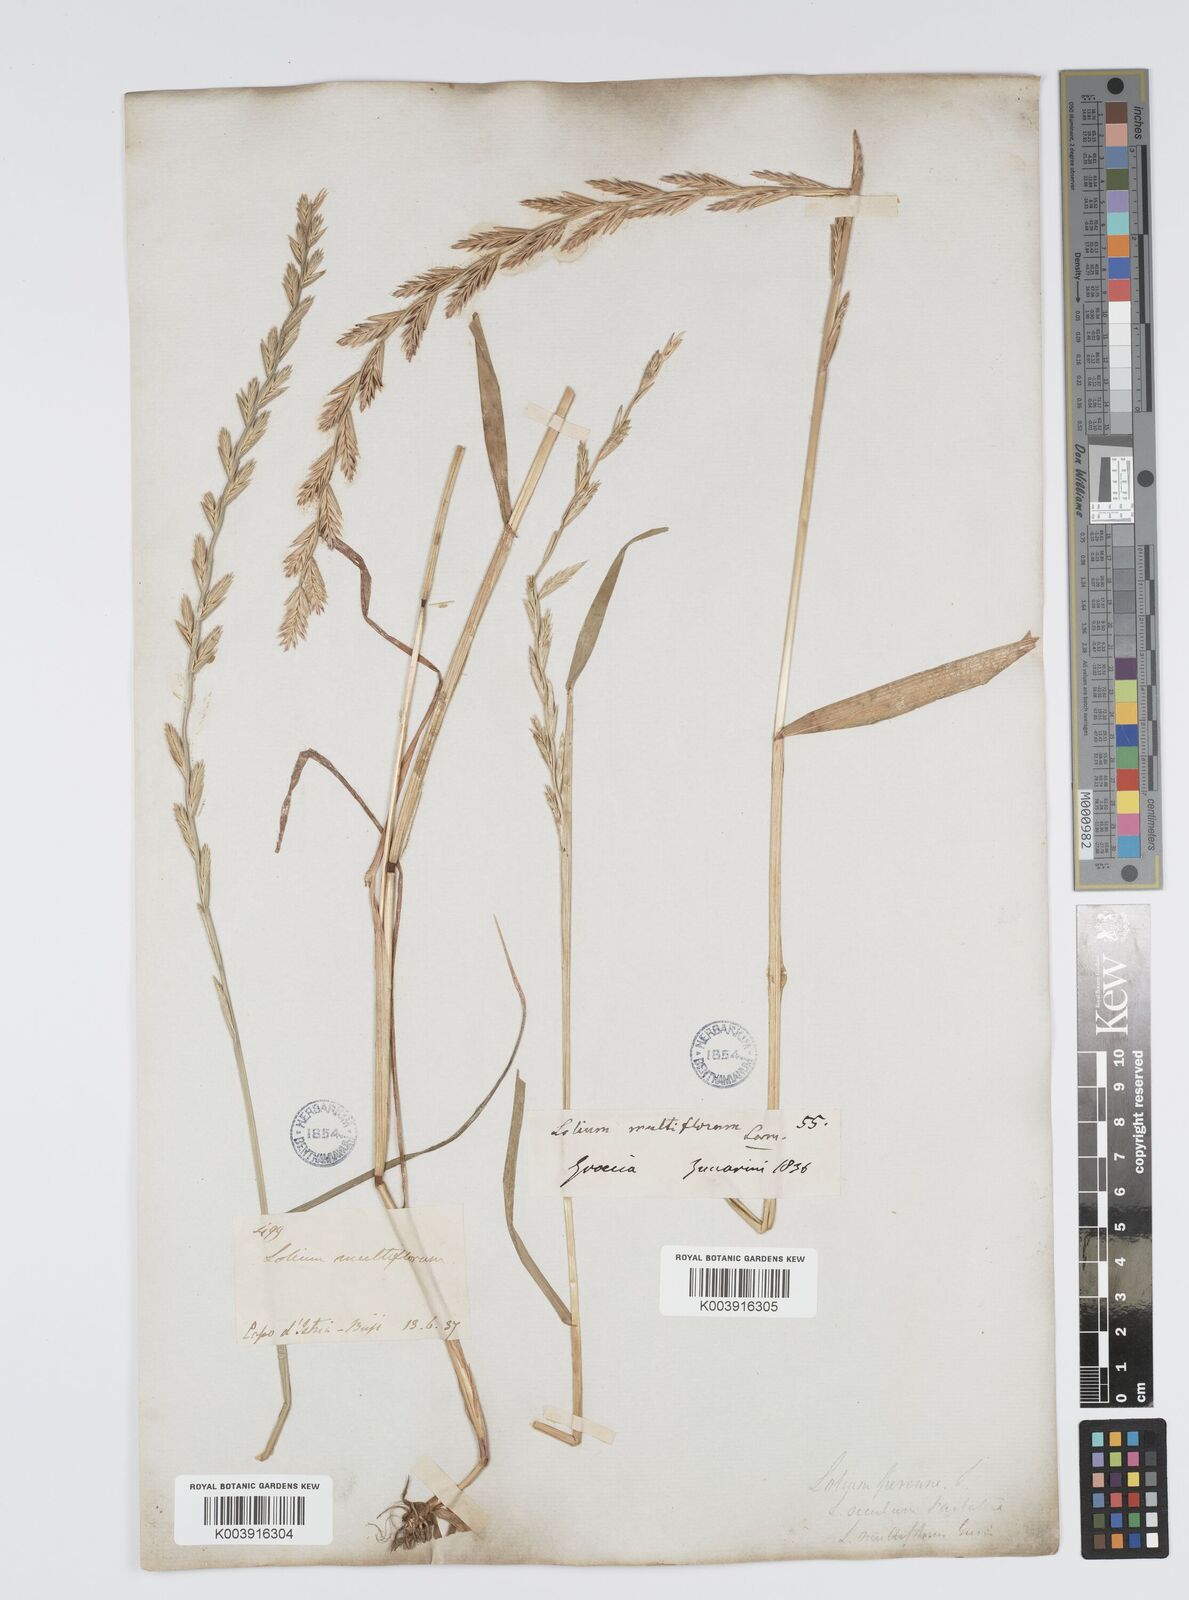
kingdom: Plantae
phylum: Tracheophyta
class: Liliopsida
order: Poales
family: Poaceae
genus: Lolium
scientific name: Lolium rigidum
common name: Wimmera ryegrass
